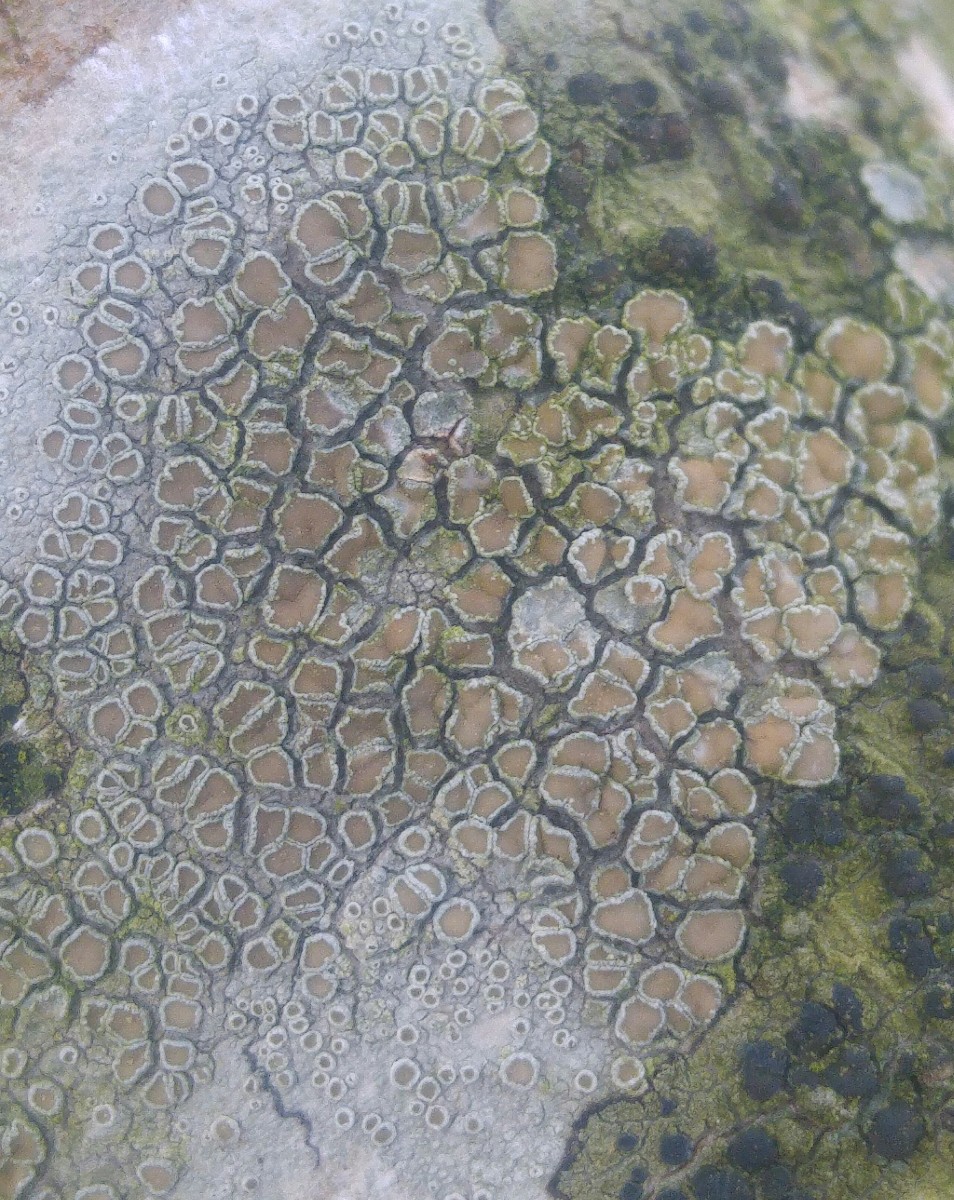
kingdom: Fungi
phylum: Ascomycota
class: Lecanoromycetes
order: Lecanorales
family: Lecanoraceae
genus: Lecanora
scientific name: Lecanora chlarotera
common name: brun kantskivelav
